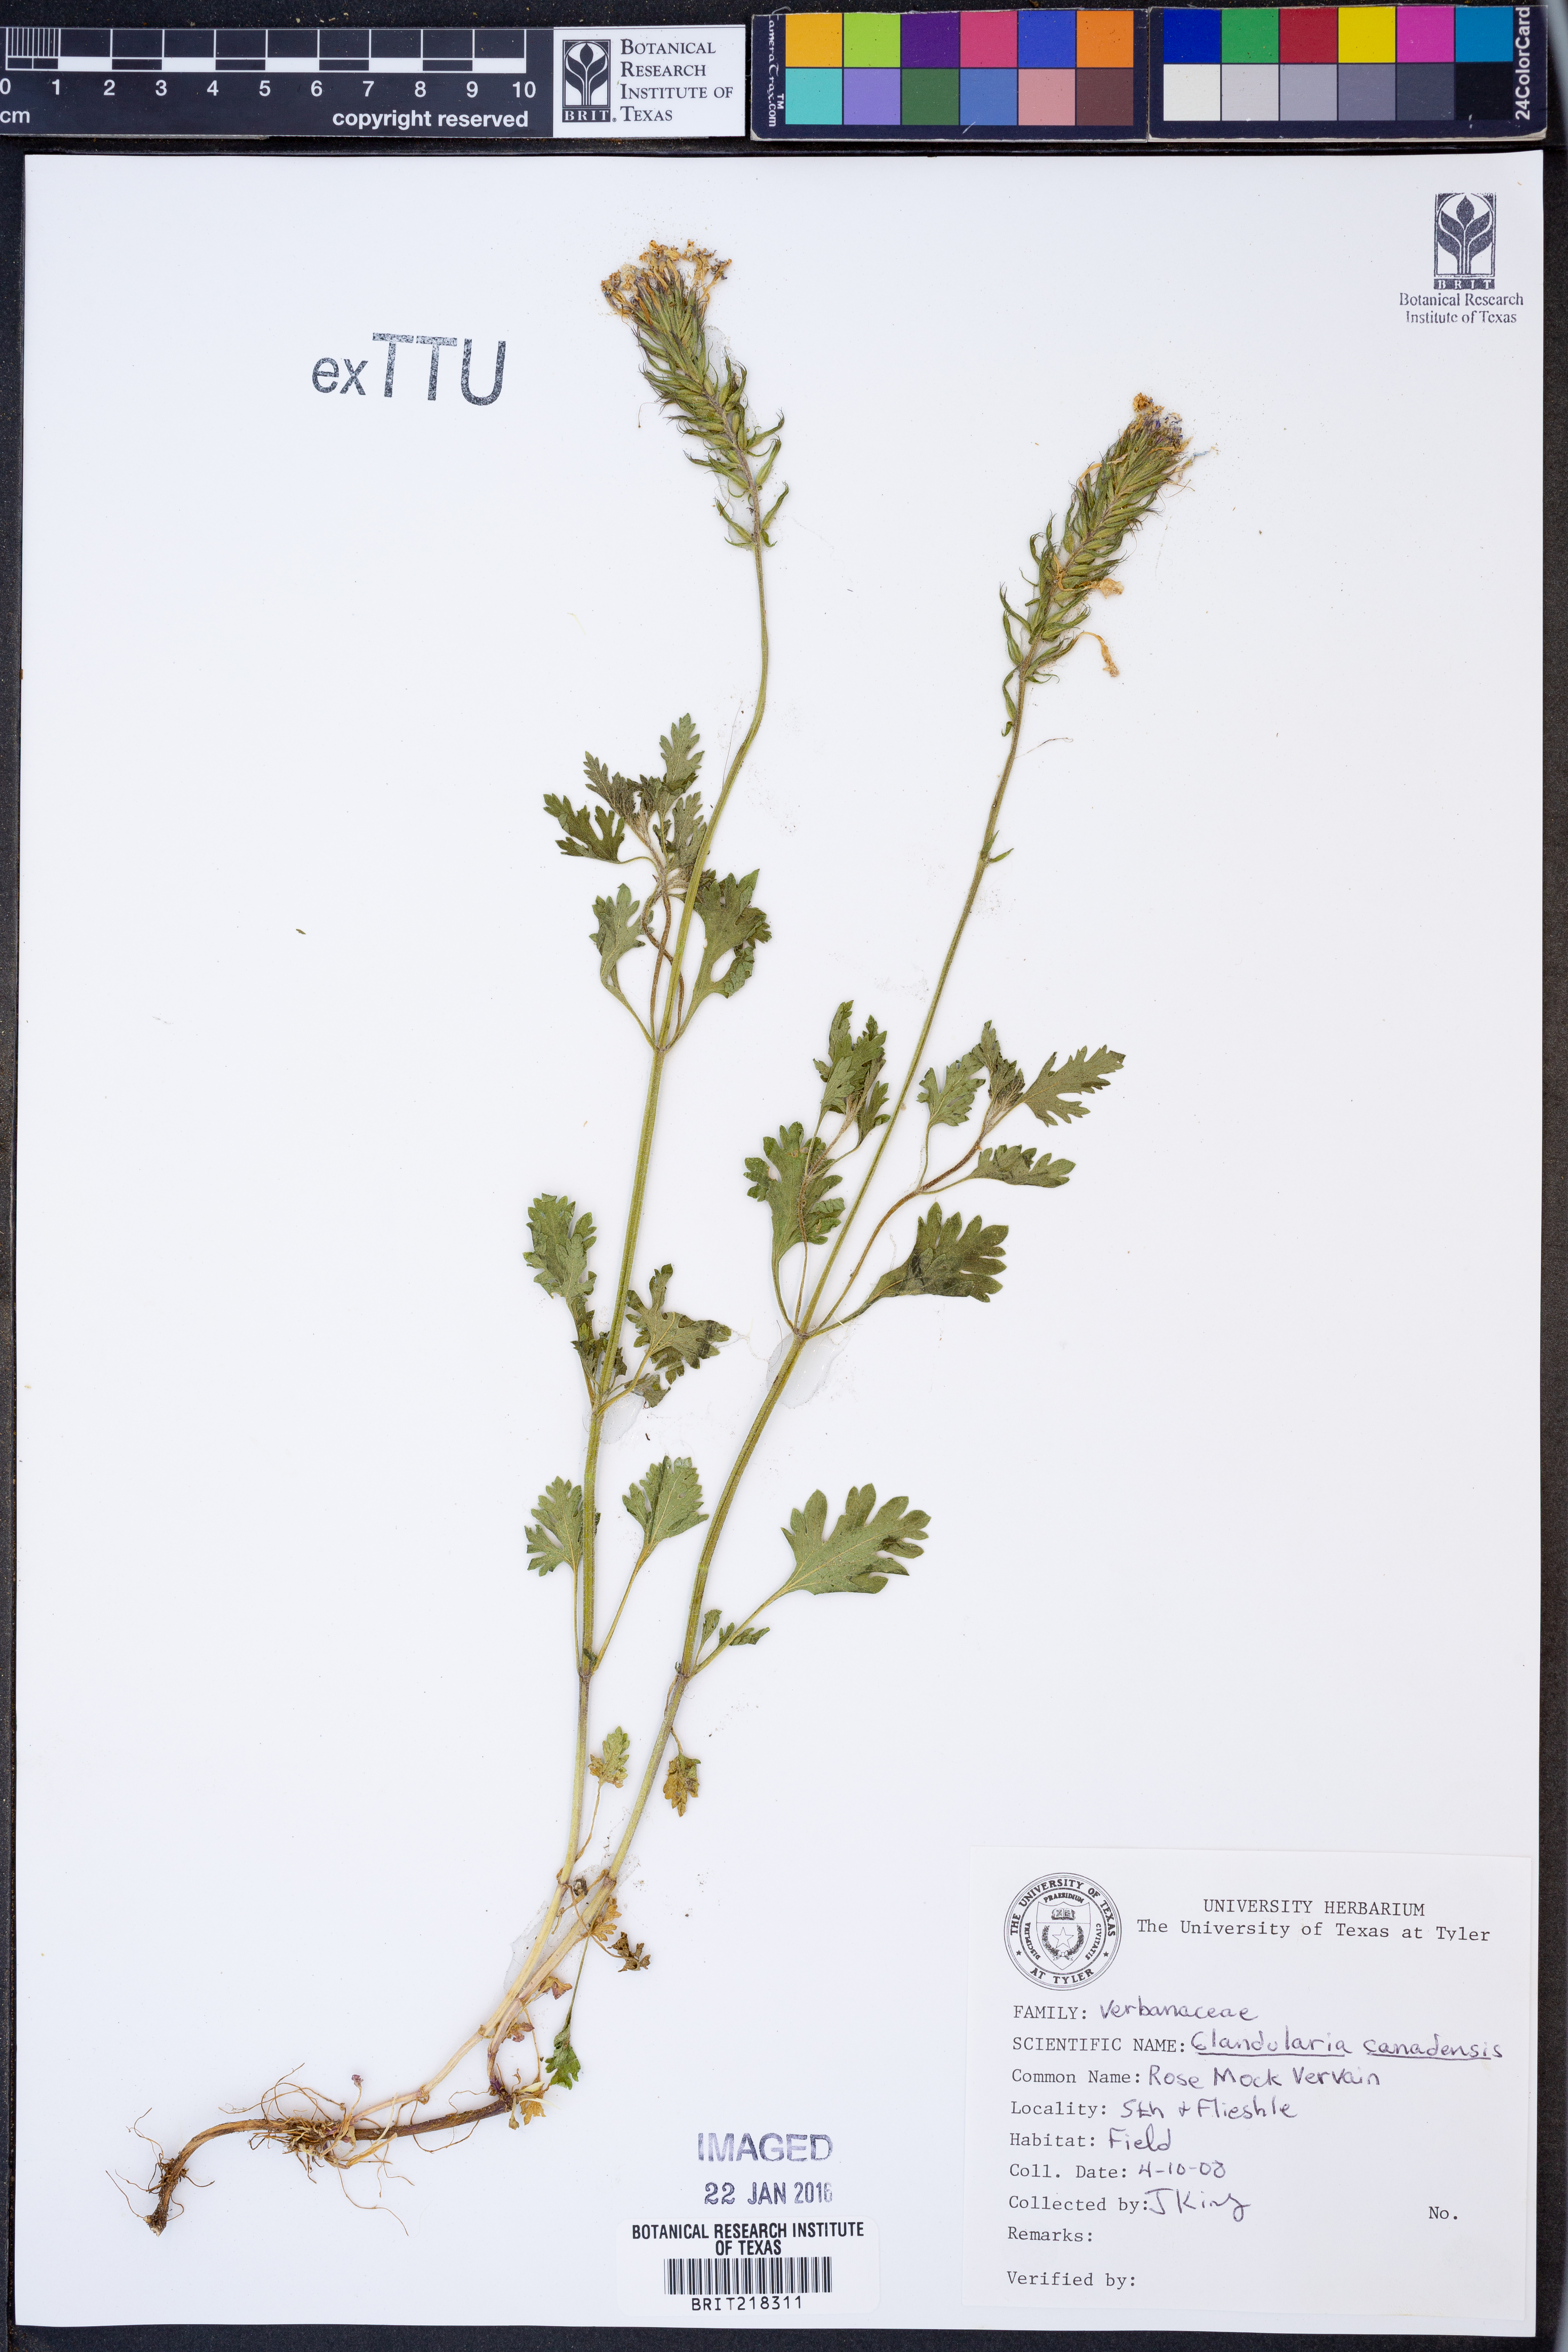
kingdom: Plantae
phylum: Tracheophyta
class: Magnoliopsida
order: Lamiales
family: Verbenaceae
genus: Verbena
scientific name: Verbena canadensis
